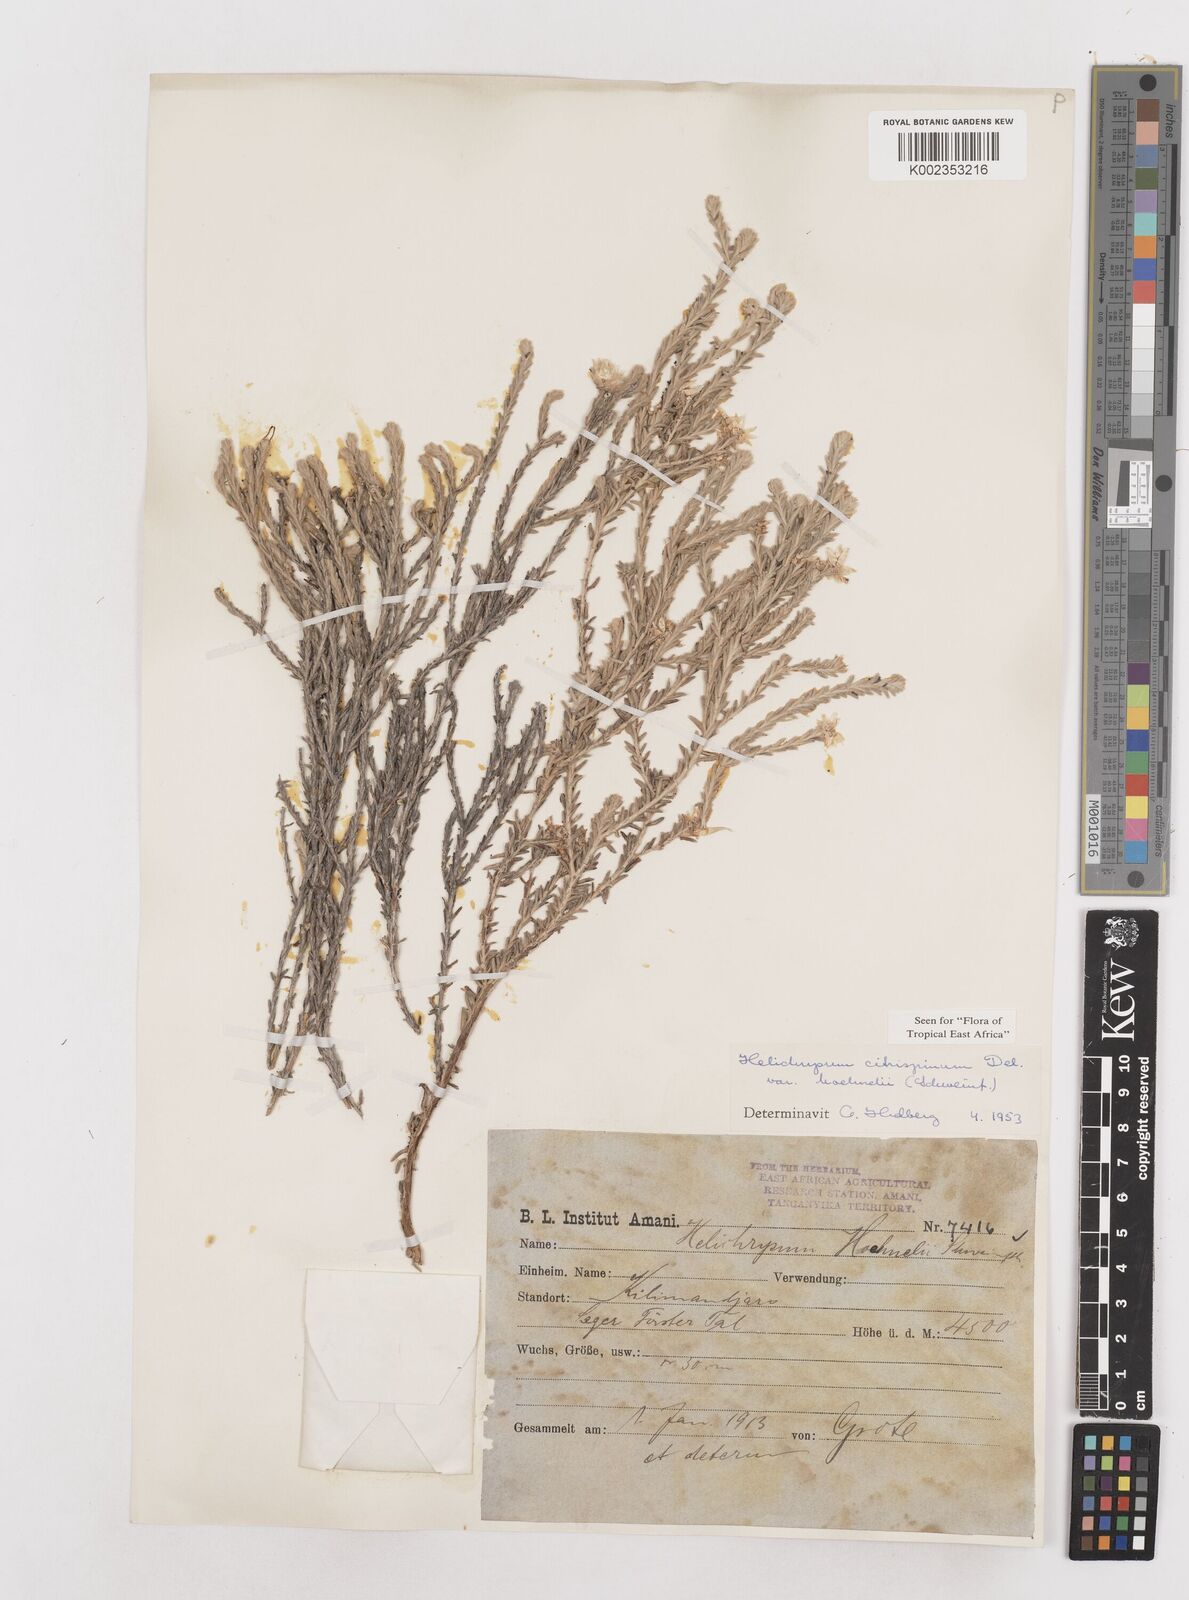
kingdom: Plantae
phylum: Tracheophyta
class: Magnoliopsida
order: Asterales
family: Asteraceae
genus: Helichrysum
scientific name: Helichrysum citrispinum
